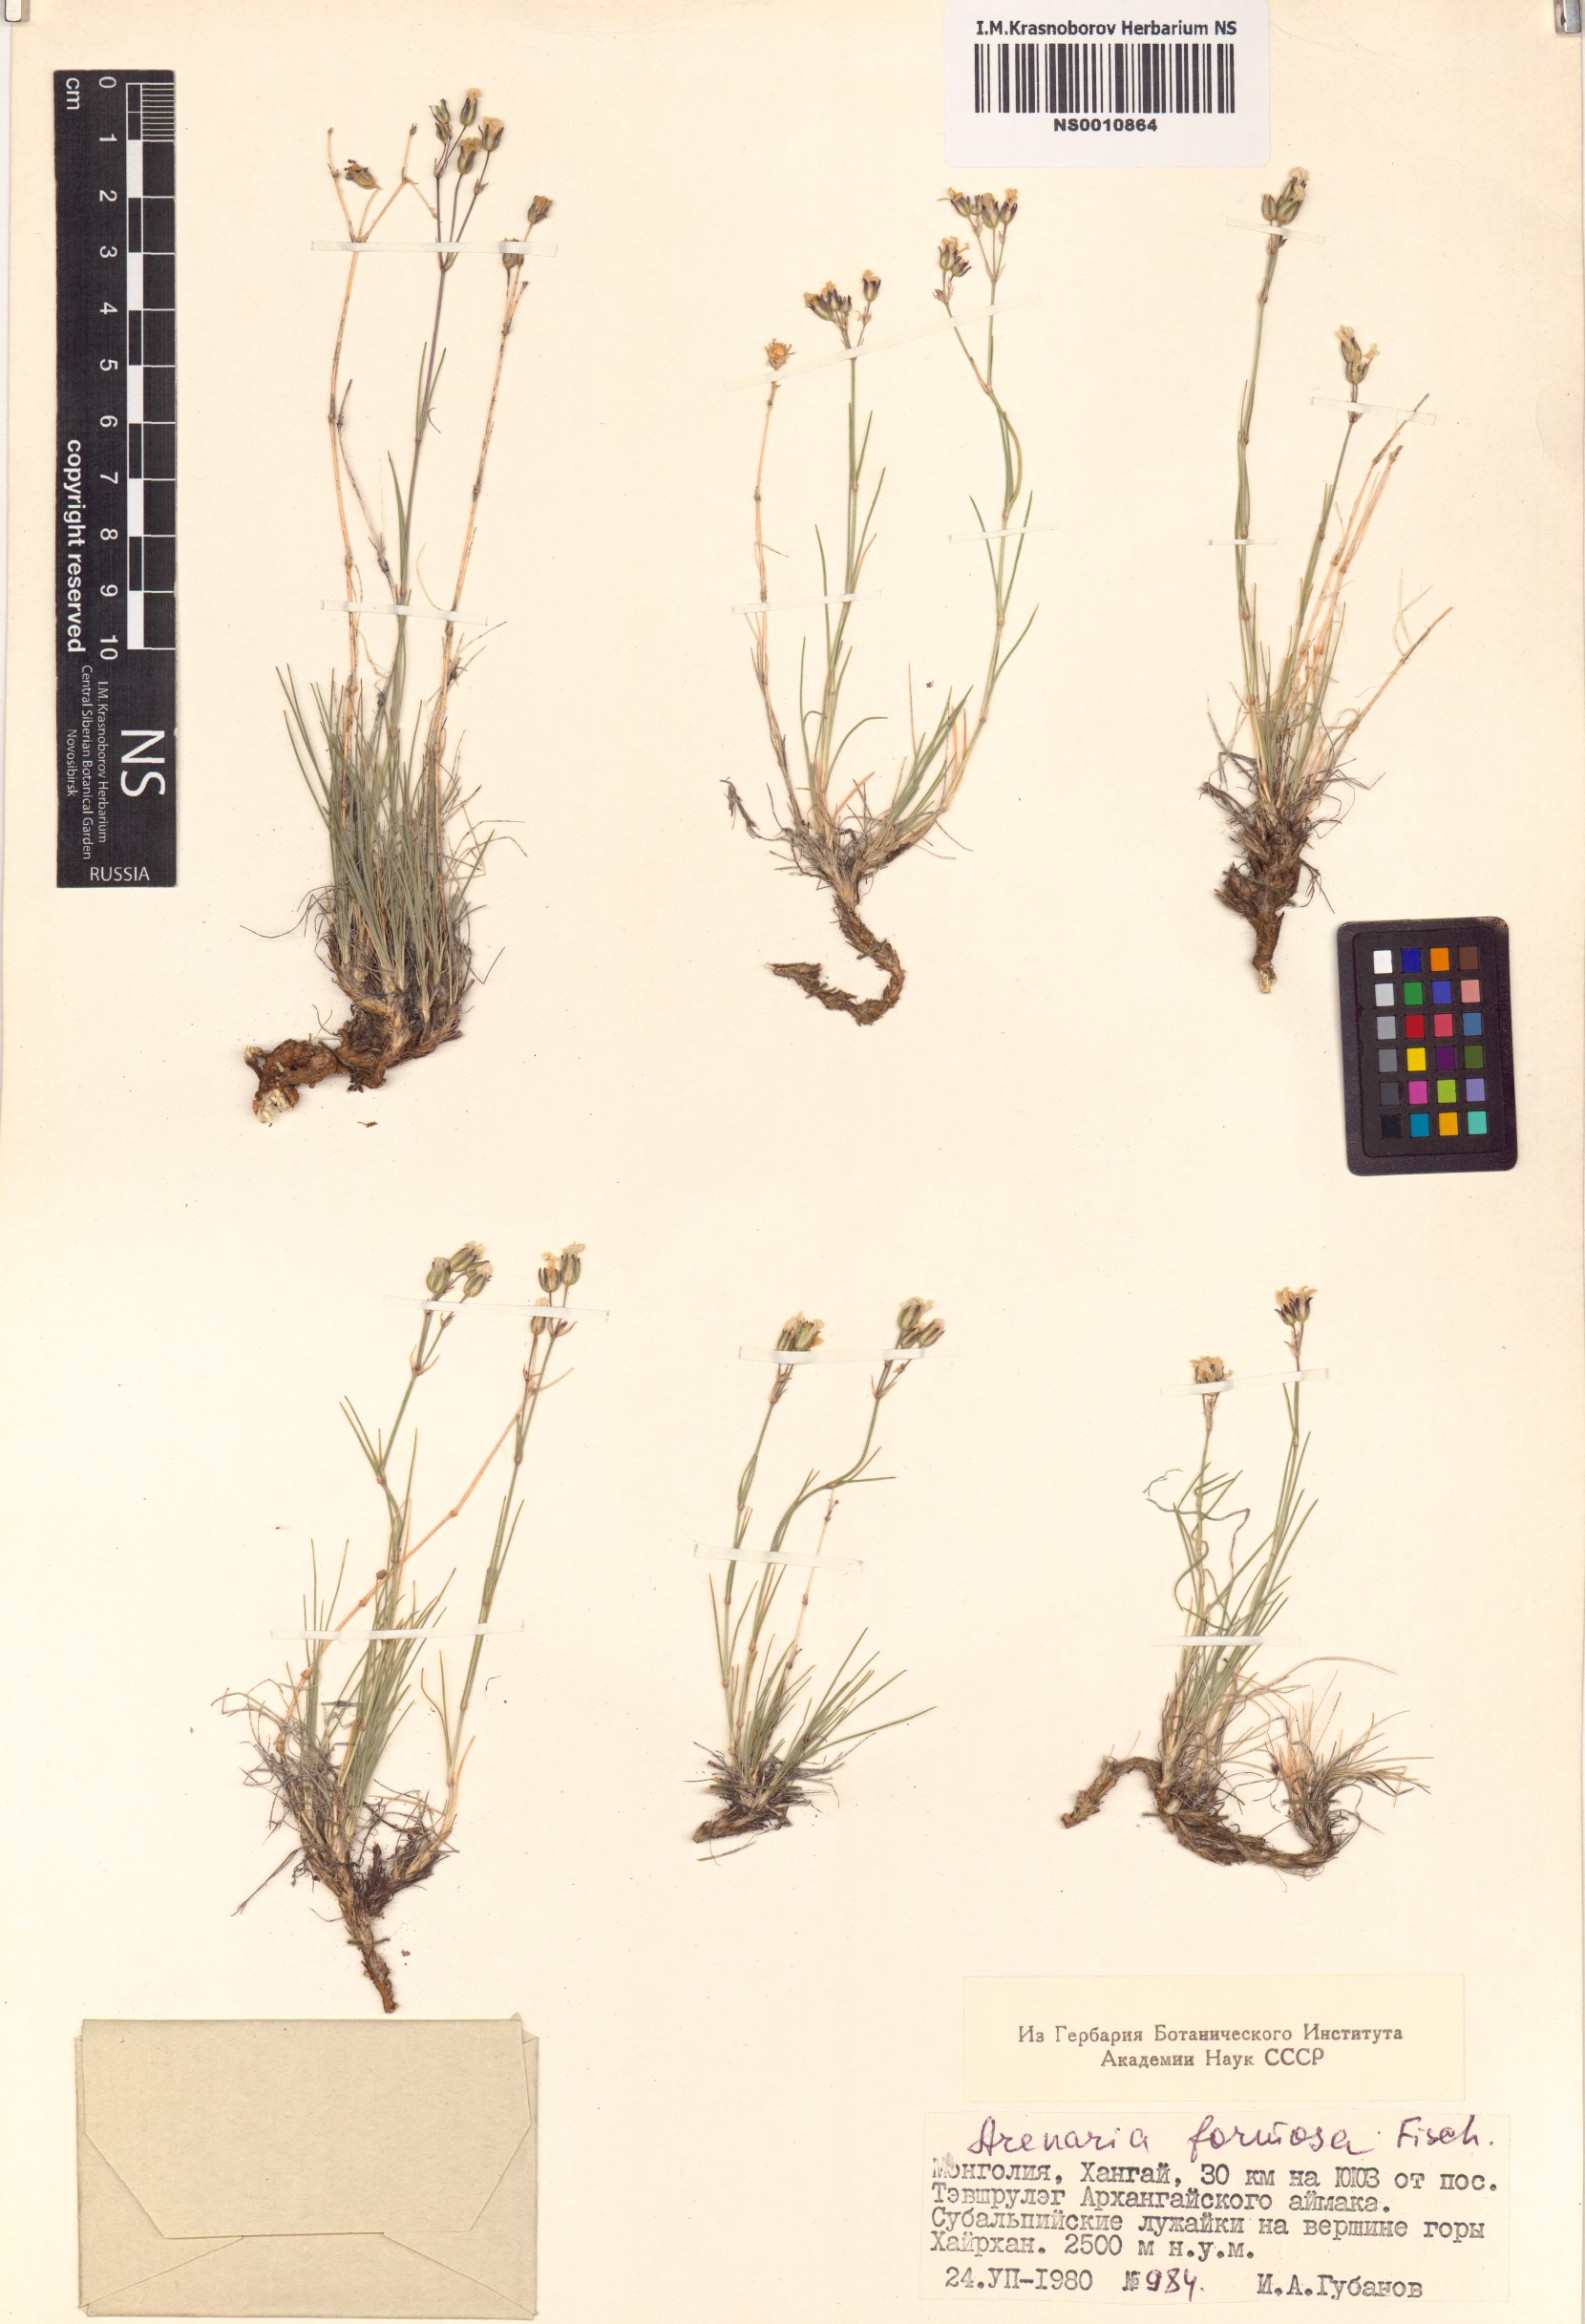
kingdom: Plantae
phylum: Tracheophyta
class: Magnoliopsida
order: Caryophyllales
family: Caryophyllaceae
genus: Eremogone
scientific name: Eremogone formosa
